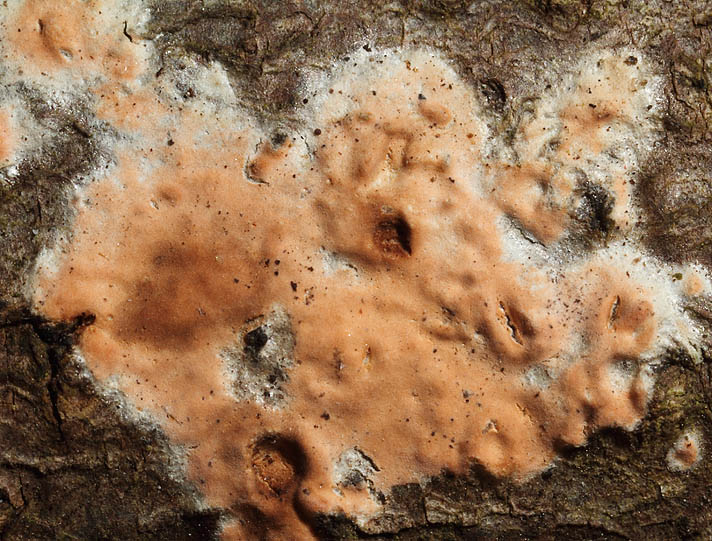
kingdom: Fungi
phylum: Basidiomycota
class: Agaricomycetes
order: Russulales
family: Peniophoraceae
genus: Peniophora
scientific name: Peniophora incarnata
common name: laksefarvet voksskind
